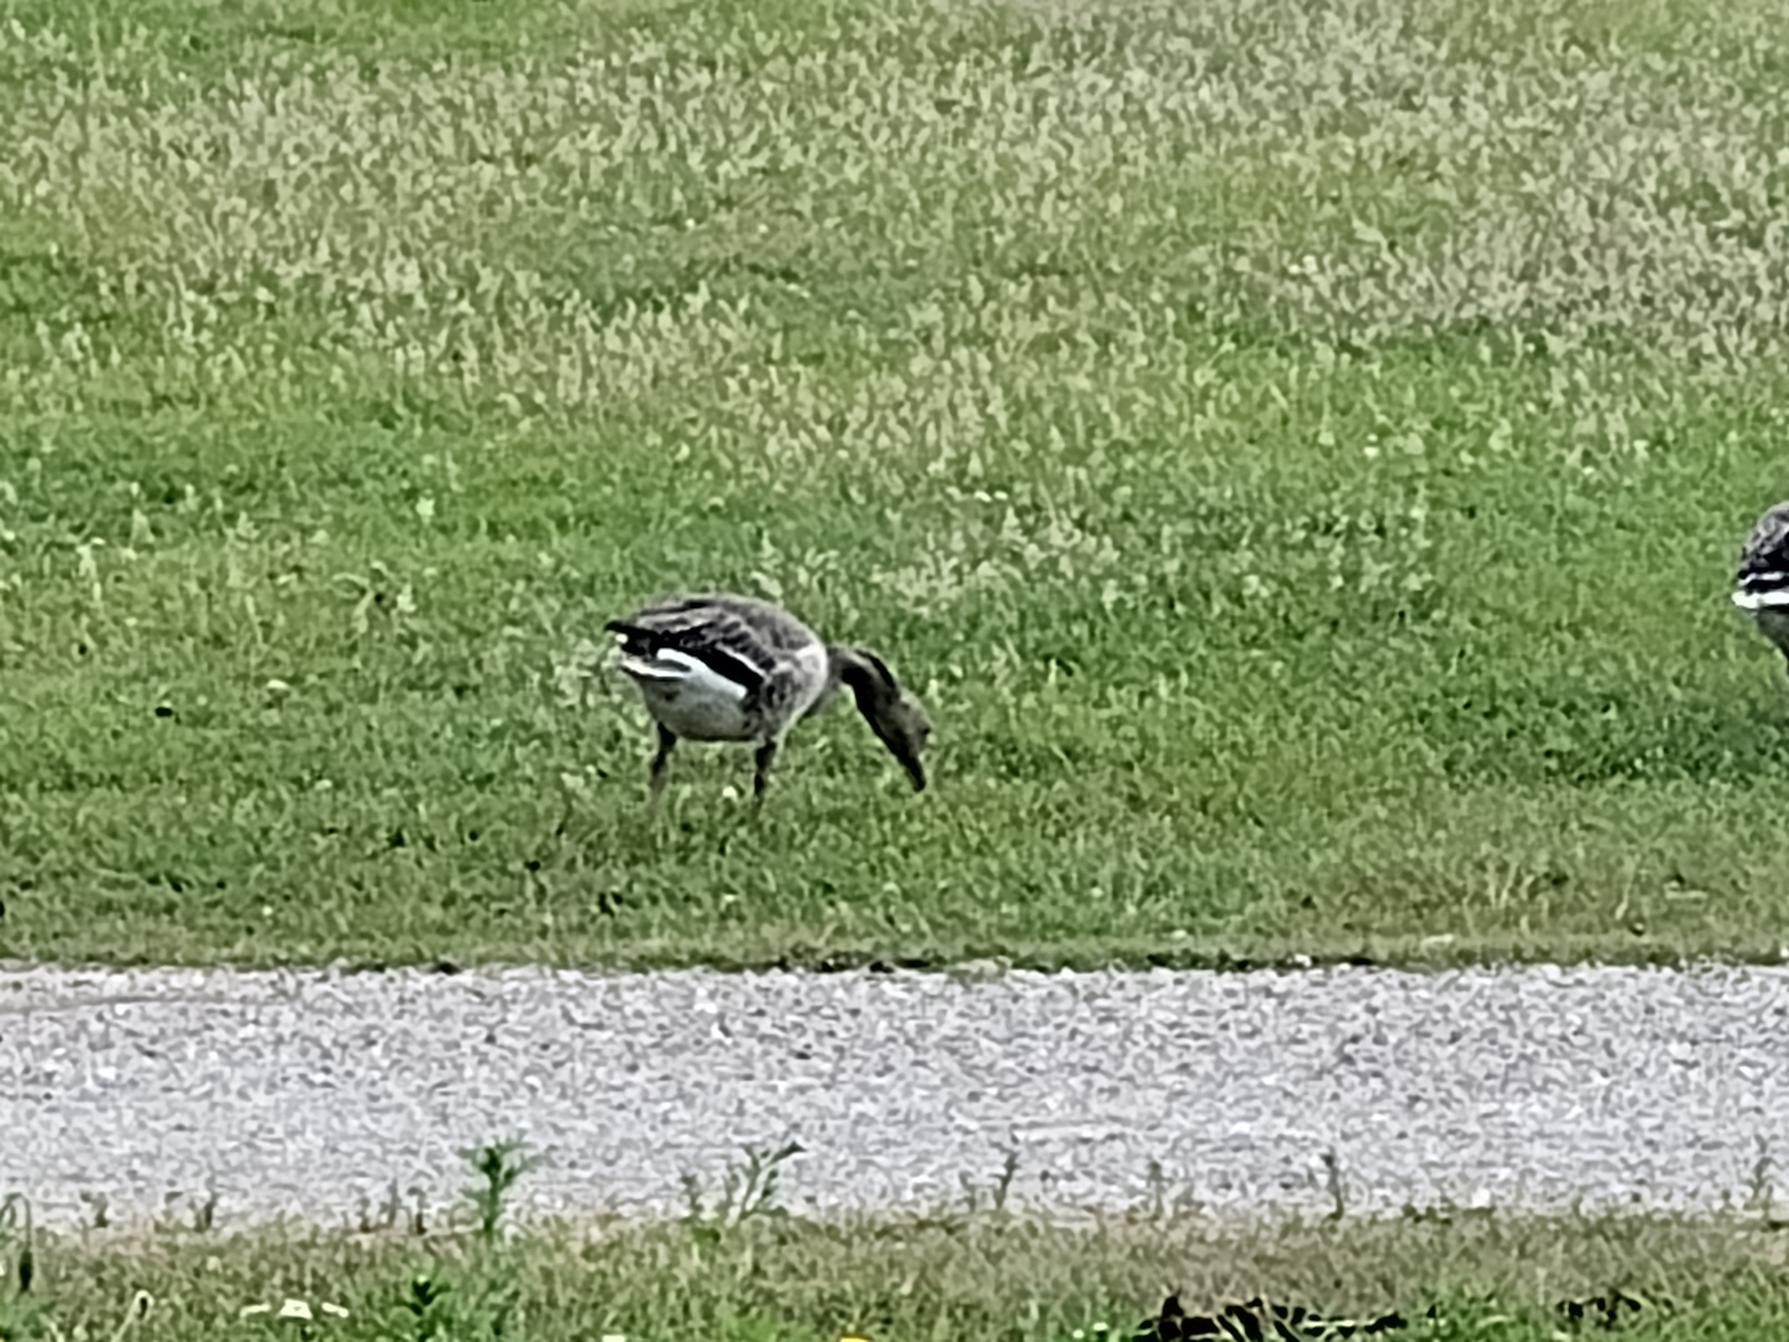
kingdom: Animalia
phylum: Chordata
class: Aves
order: Anseriformes
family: Anatidae
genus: Anser
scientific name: Anser anser
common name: Grågås
